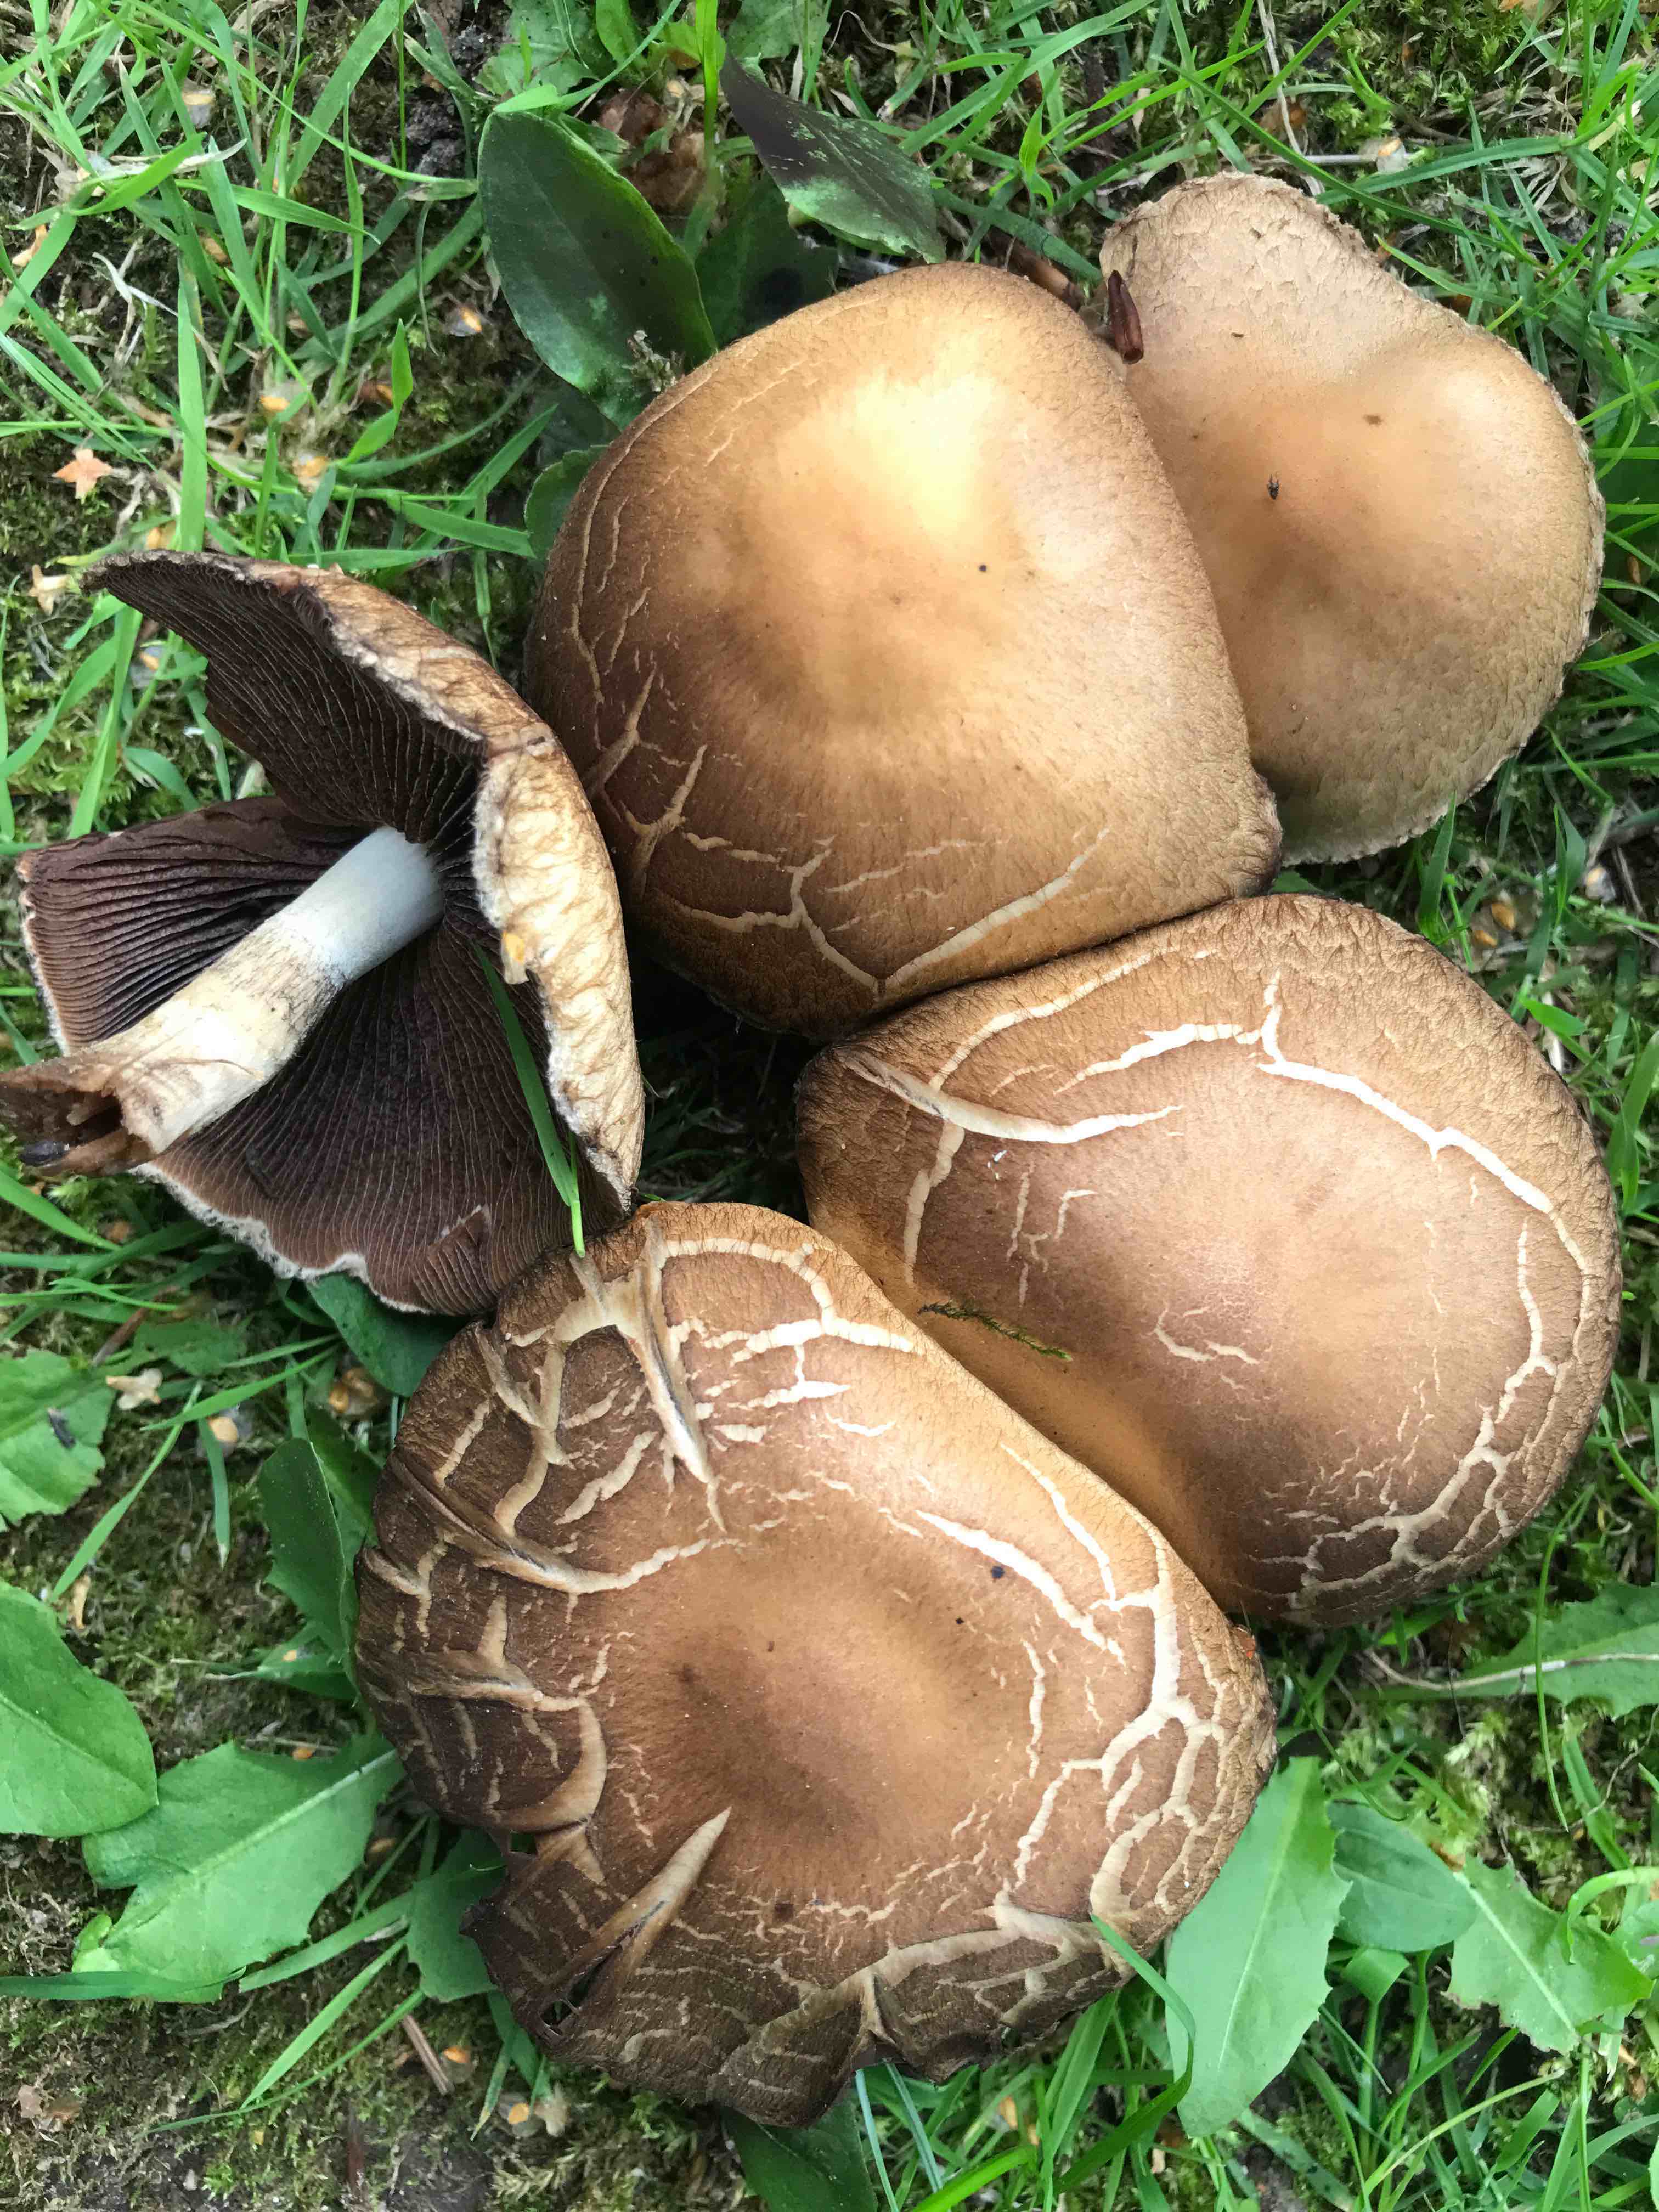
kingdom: Fungi
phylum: Basidiomycota
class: Agaricomycetes
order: Agaricales
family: Psathyrellaceae
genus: Lacrymaria
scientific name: Lacrymaria lacrymabunda
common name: grædende mørkhat
